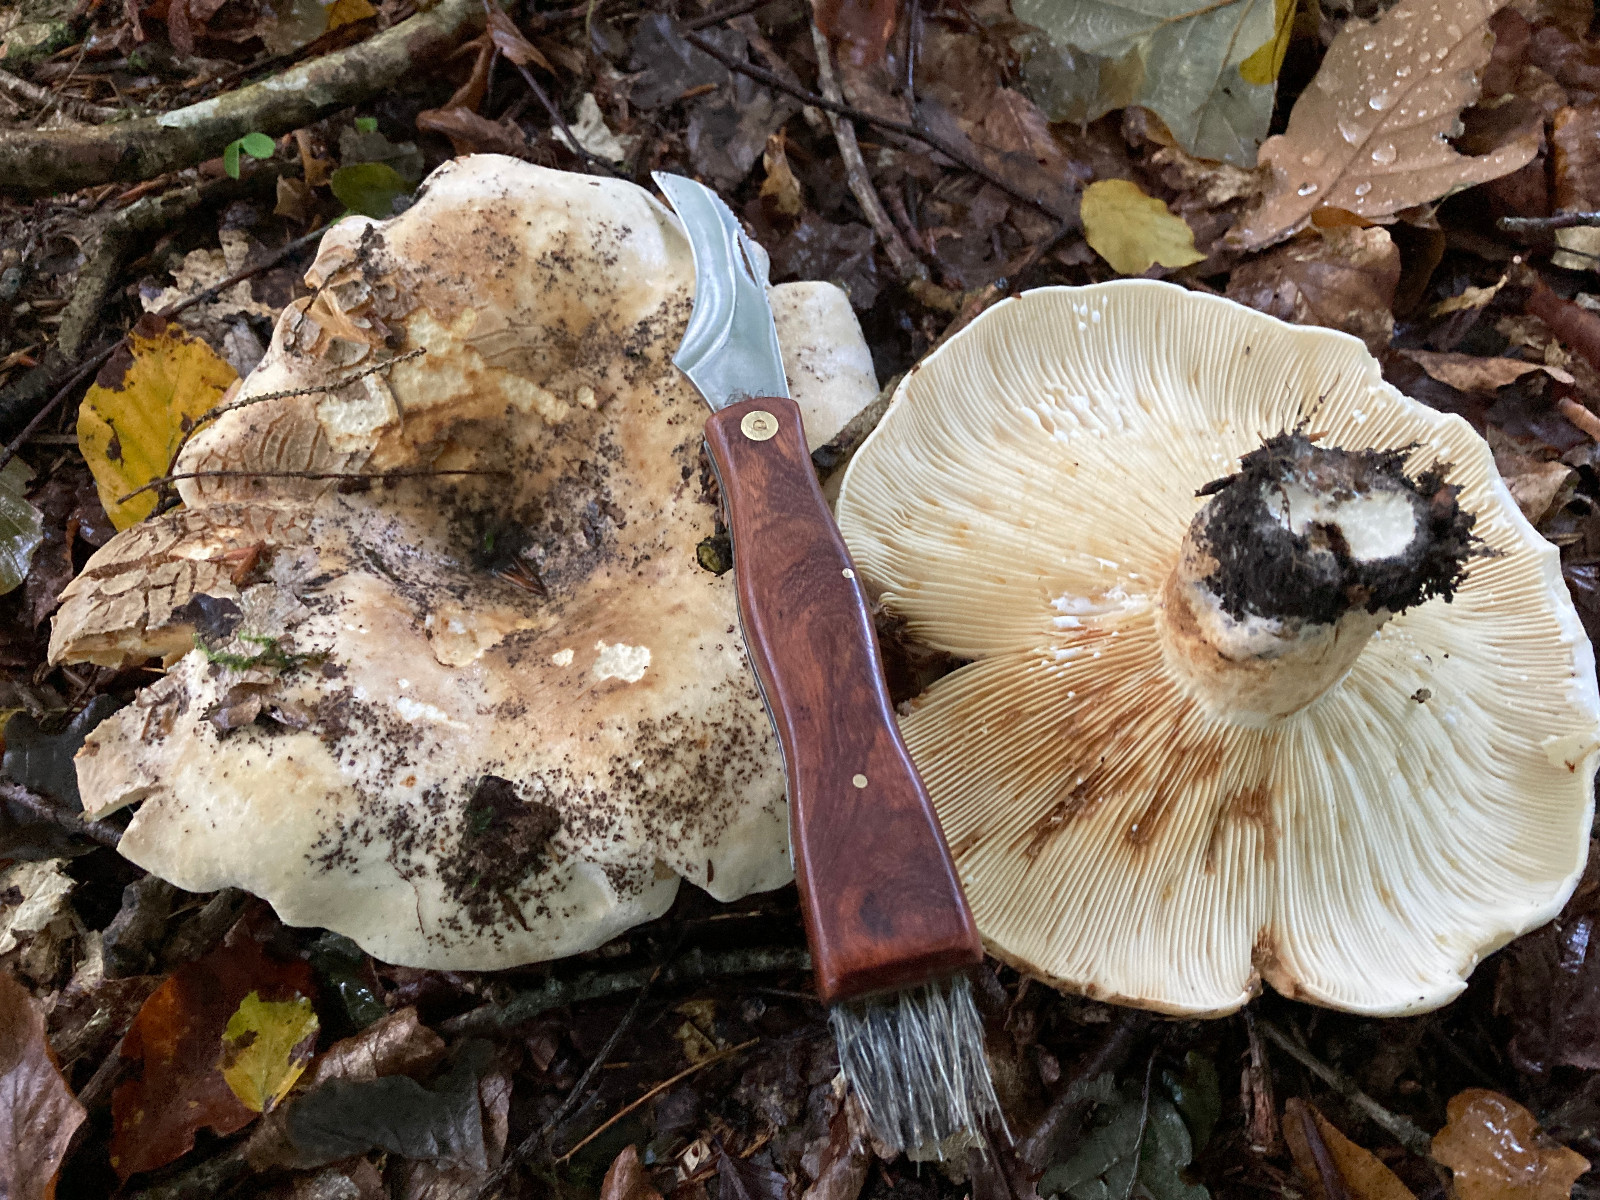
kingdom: Fungi
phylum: Basidiomycota
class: Agaricomycetes
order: Russulales
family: Russulaceae
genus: Lactifluus
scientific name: Lactifluus vellereus
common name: hvidfiltet mælkehat
